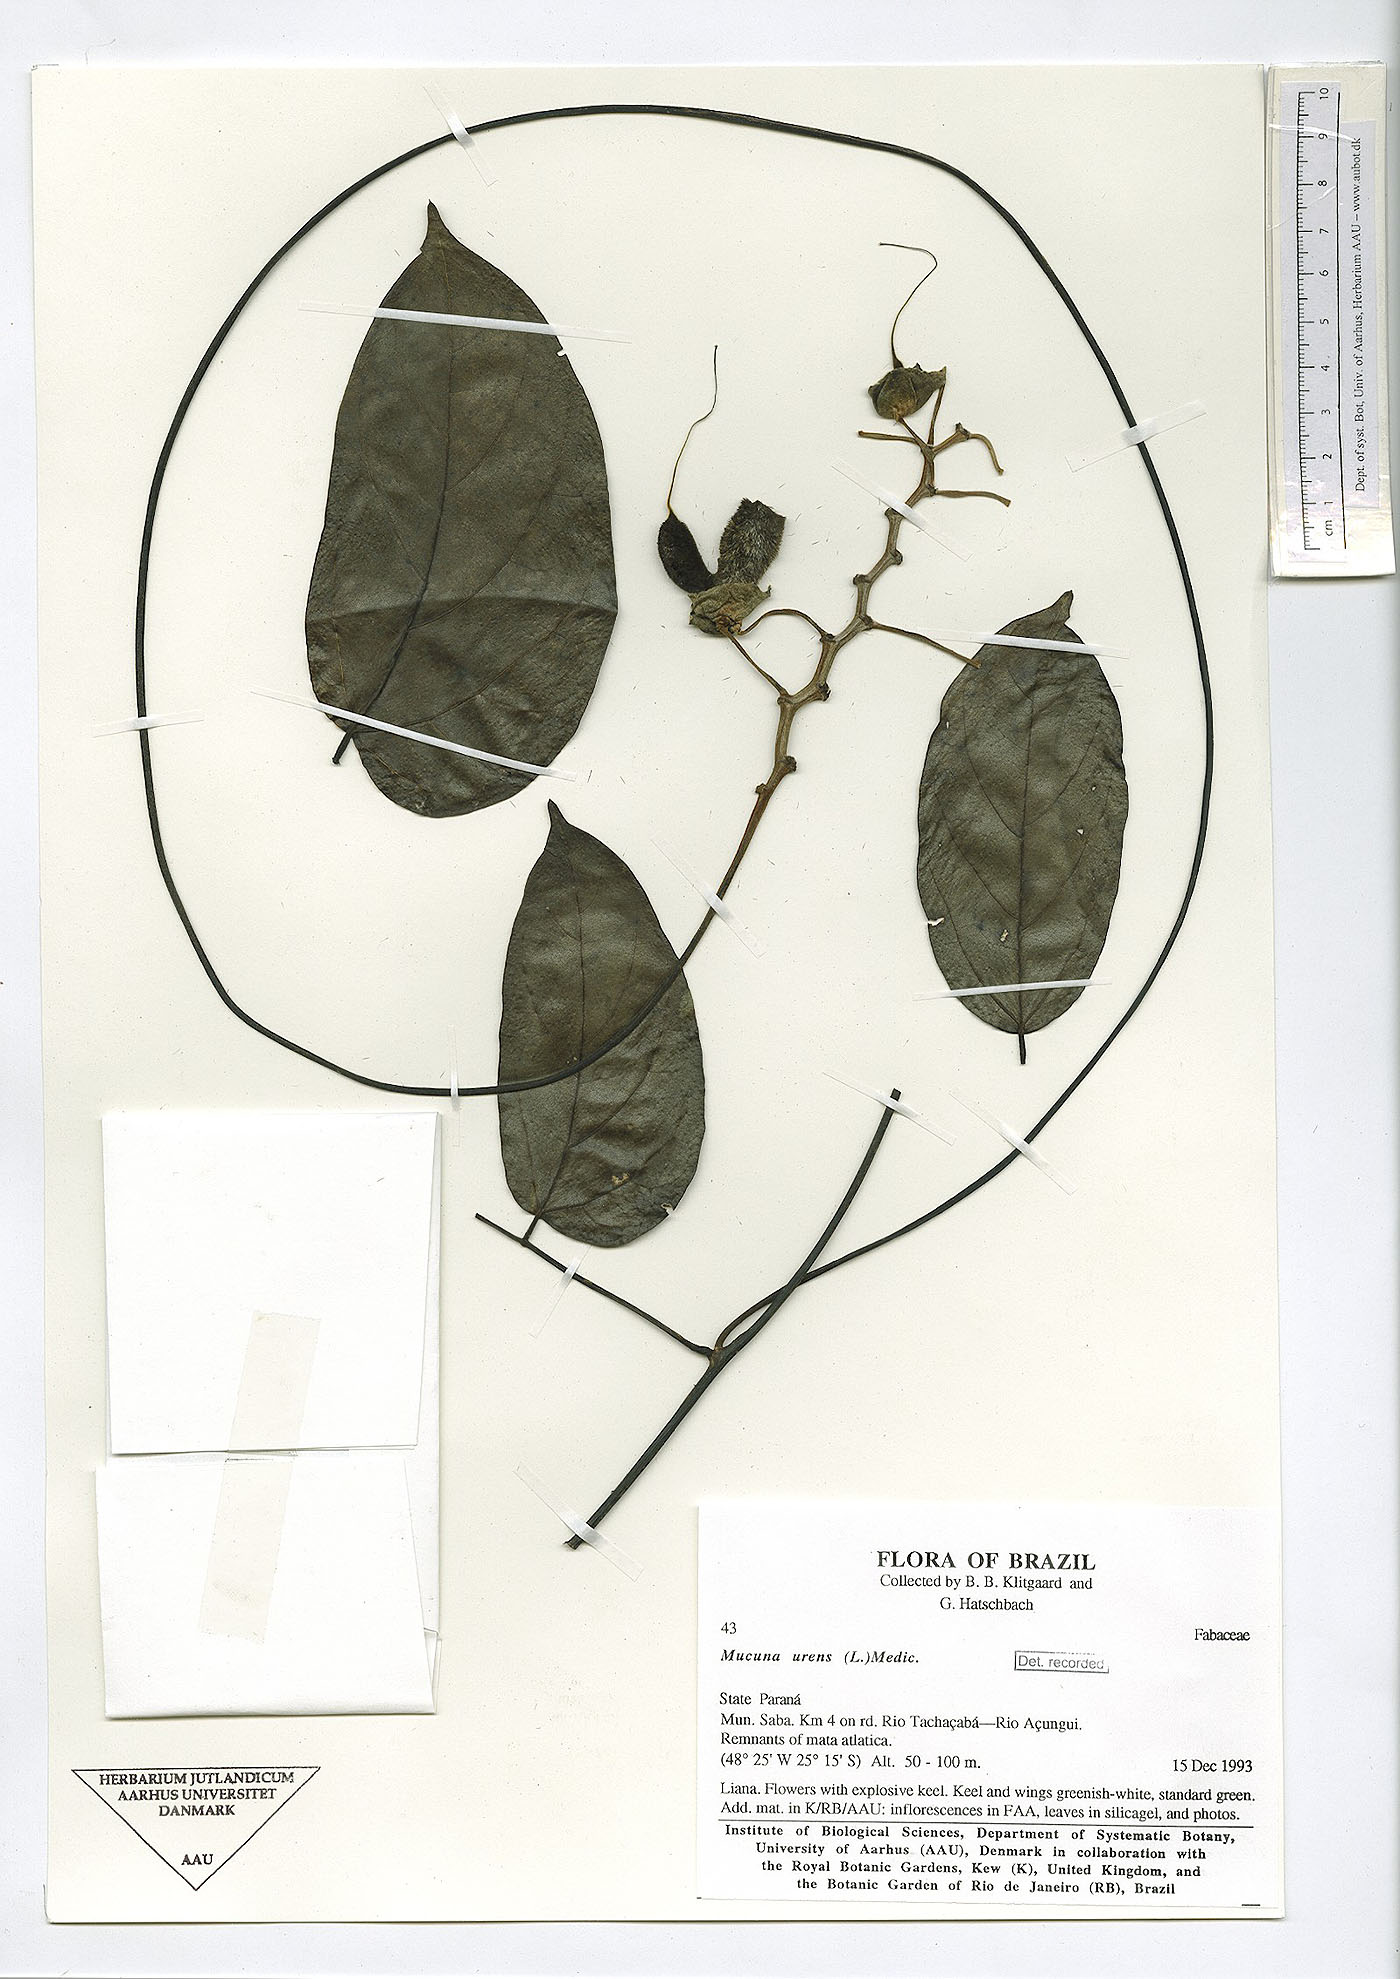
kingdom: Plantae
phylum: Tracheophyta
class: Magnoliopsida
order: Fabales
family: Fabaceae
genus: Mucuna
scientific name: Mucuna urens
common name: Red hamburger bean
